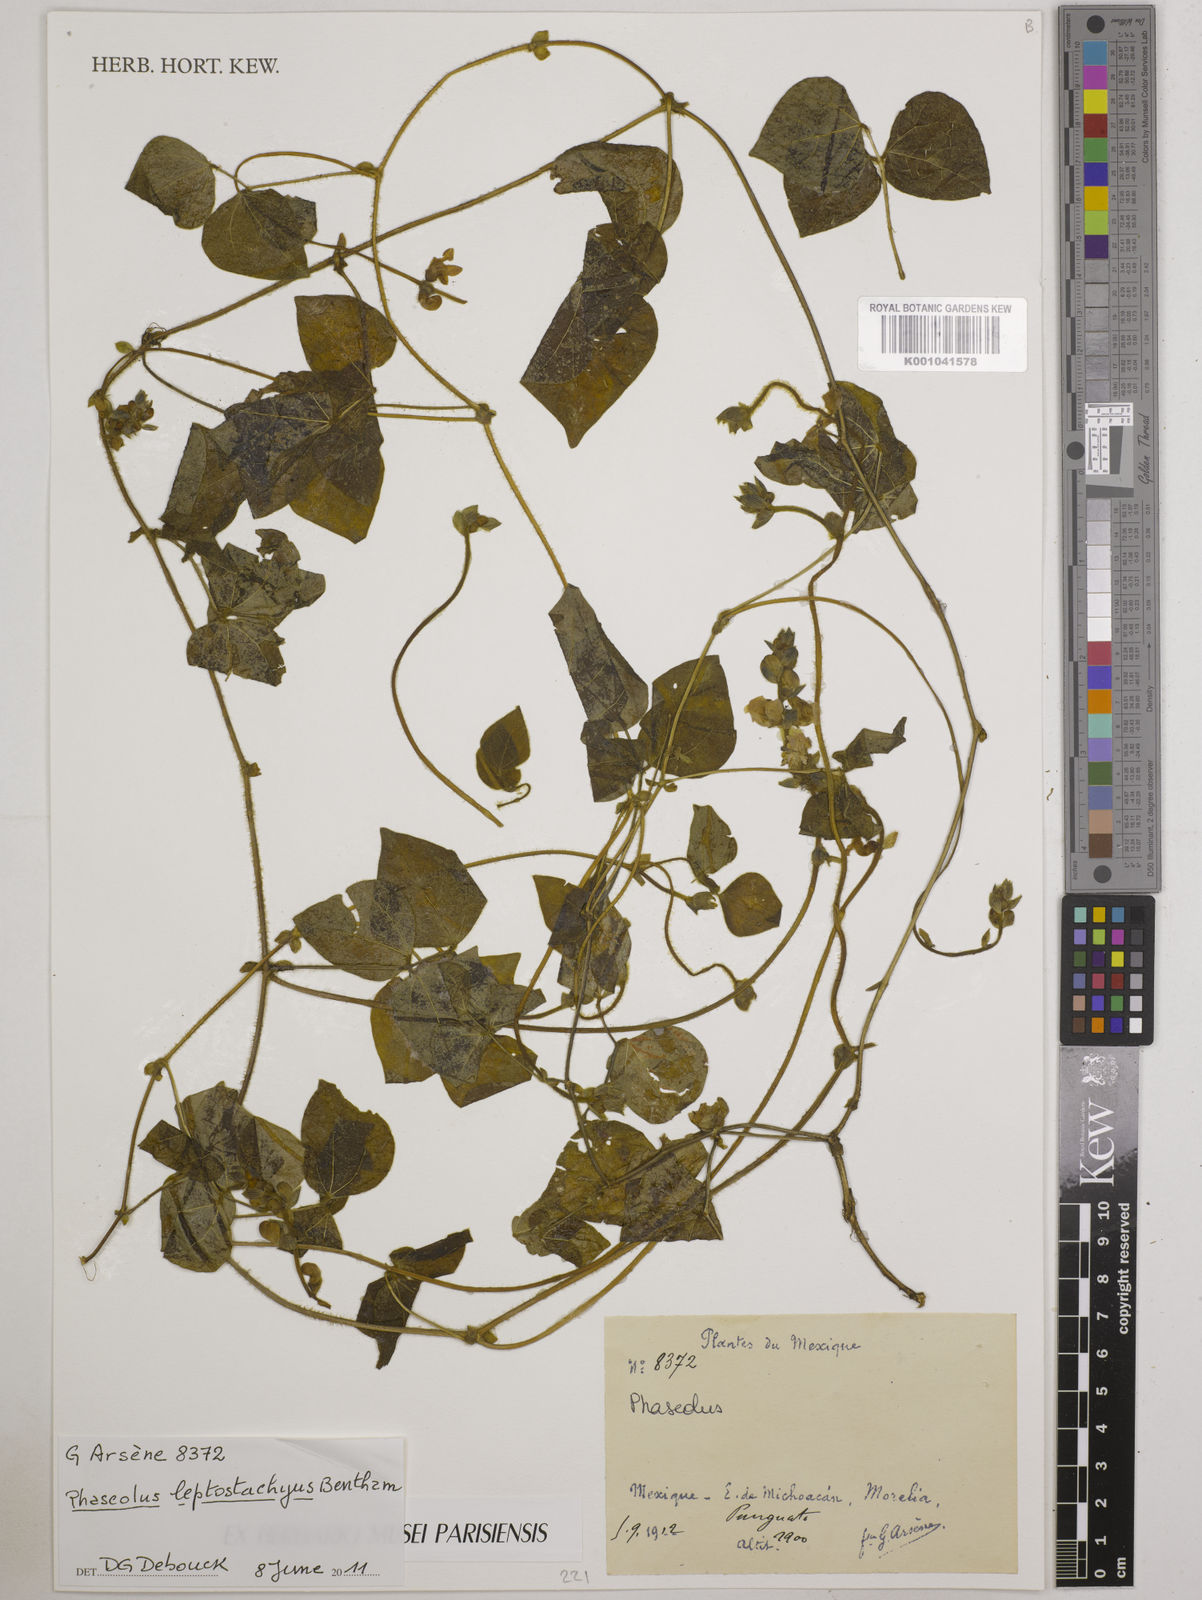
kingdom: Plantae
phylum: Tracheophyta
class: Magnoliopsida
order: Fabales
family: Fabaceae
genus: Phaseolus
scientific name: Phaseolus leptostachyus
